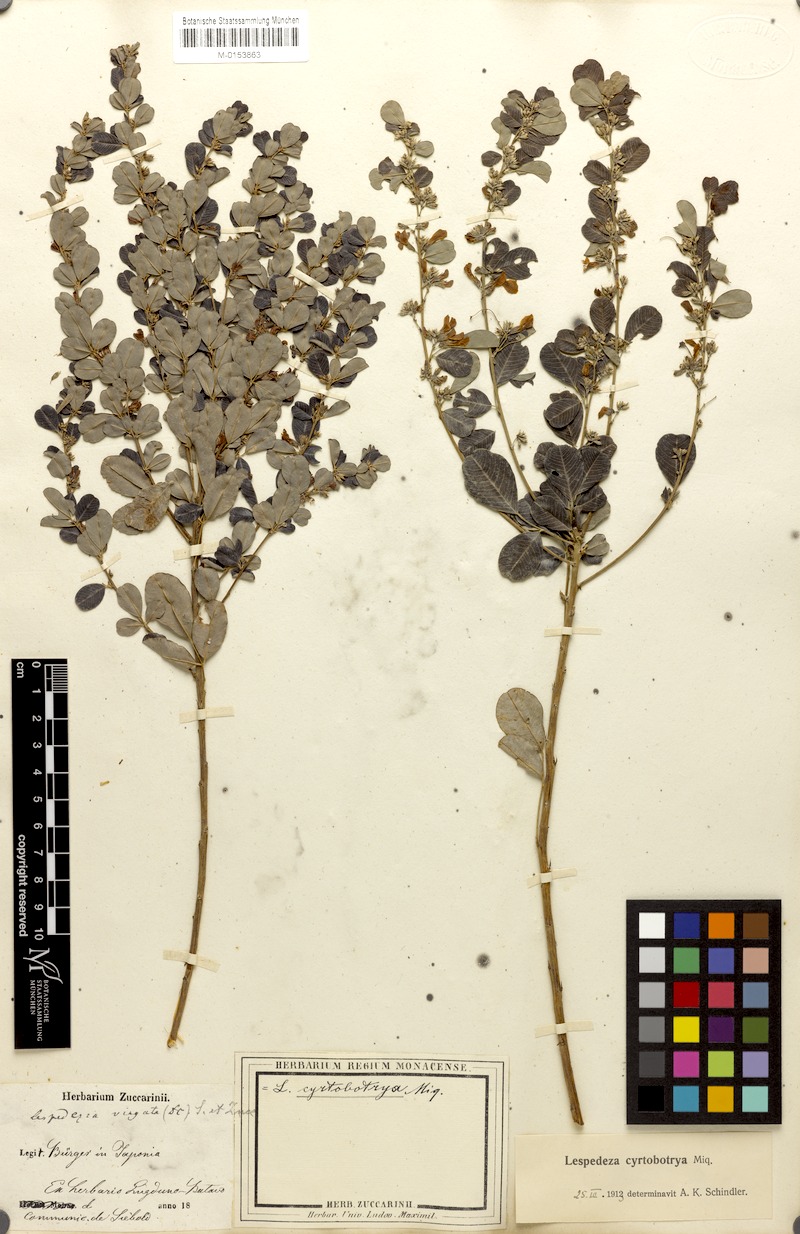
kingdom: Plantae
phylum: Tracheophyta
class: Magnoliopsida
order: Fabales
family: Fabaceae
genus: Lespedeza
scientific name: Lespedeza cyrtobotrya
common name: Leafy lespedeza
